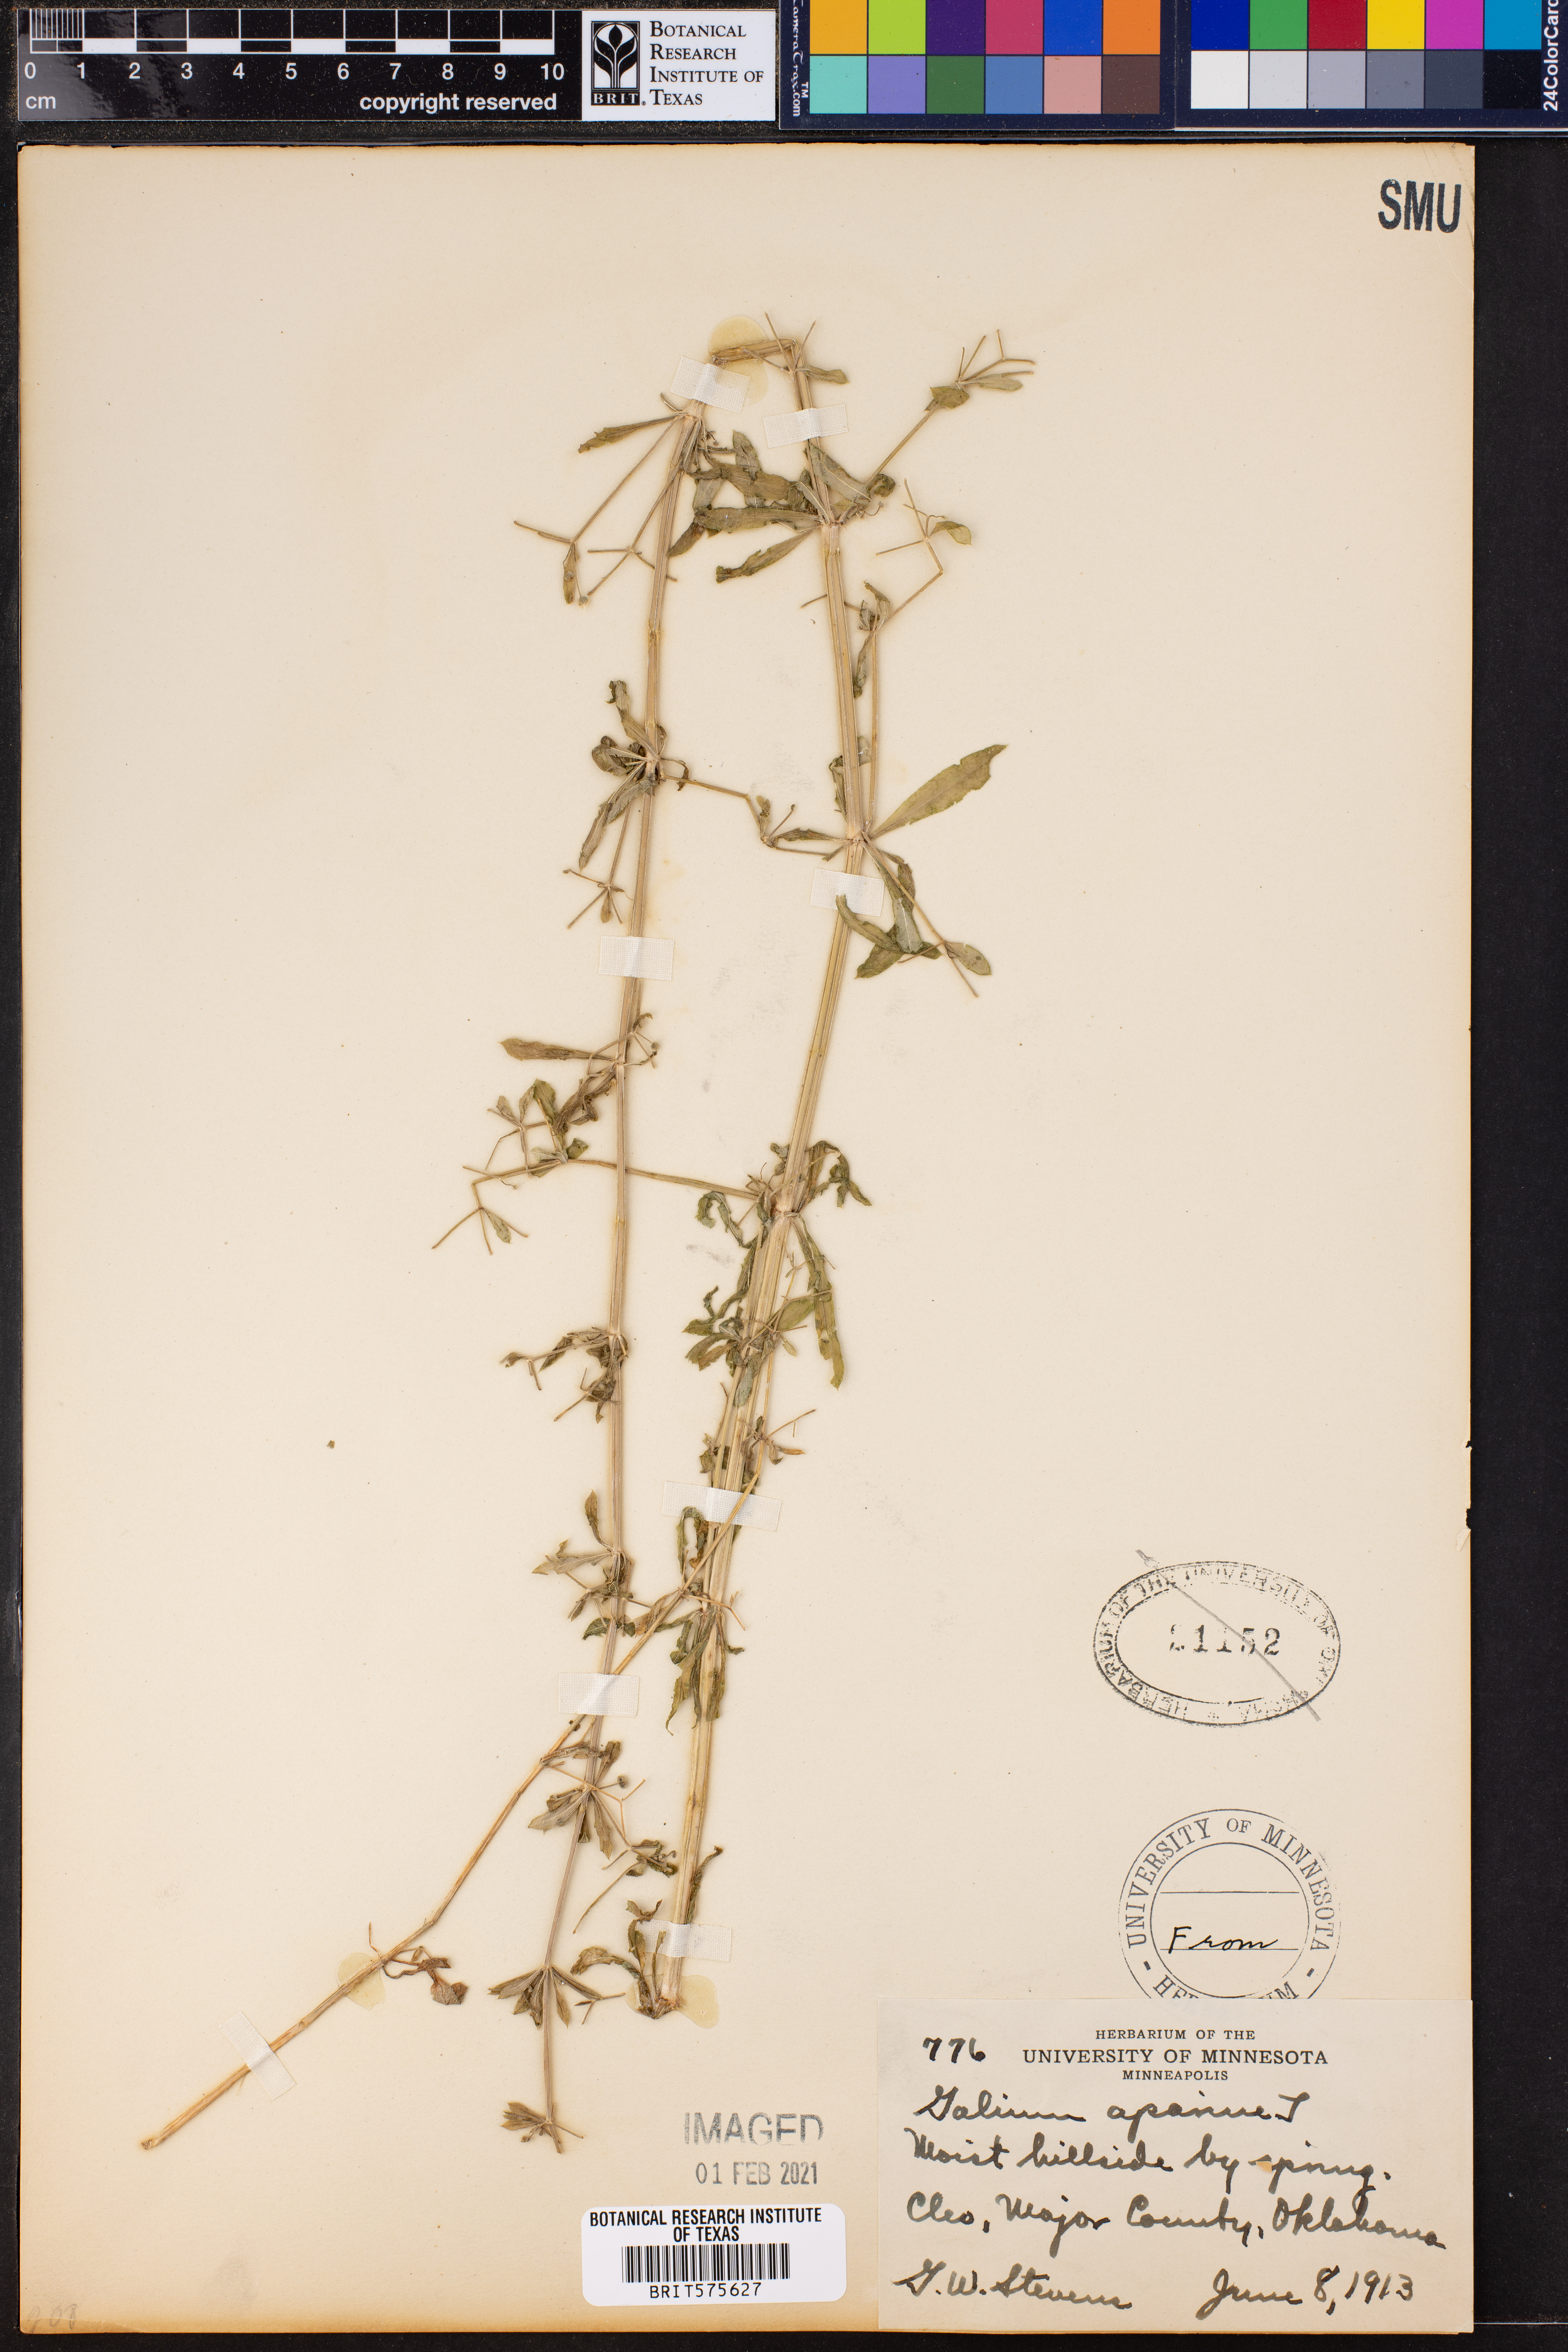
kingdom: Plantae
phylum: Tracheophyta
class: Magnoliopsida
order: Gentianales
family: Rubiaceae
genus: Galium
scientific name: Galium aparine
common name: Cleavers
